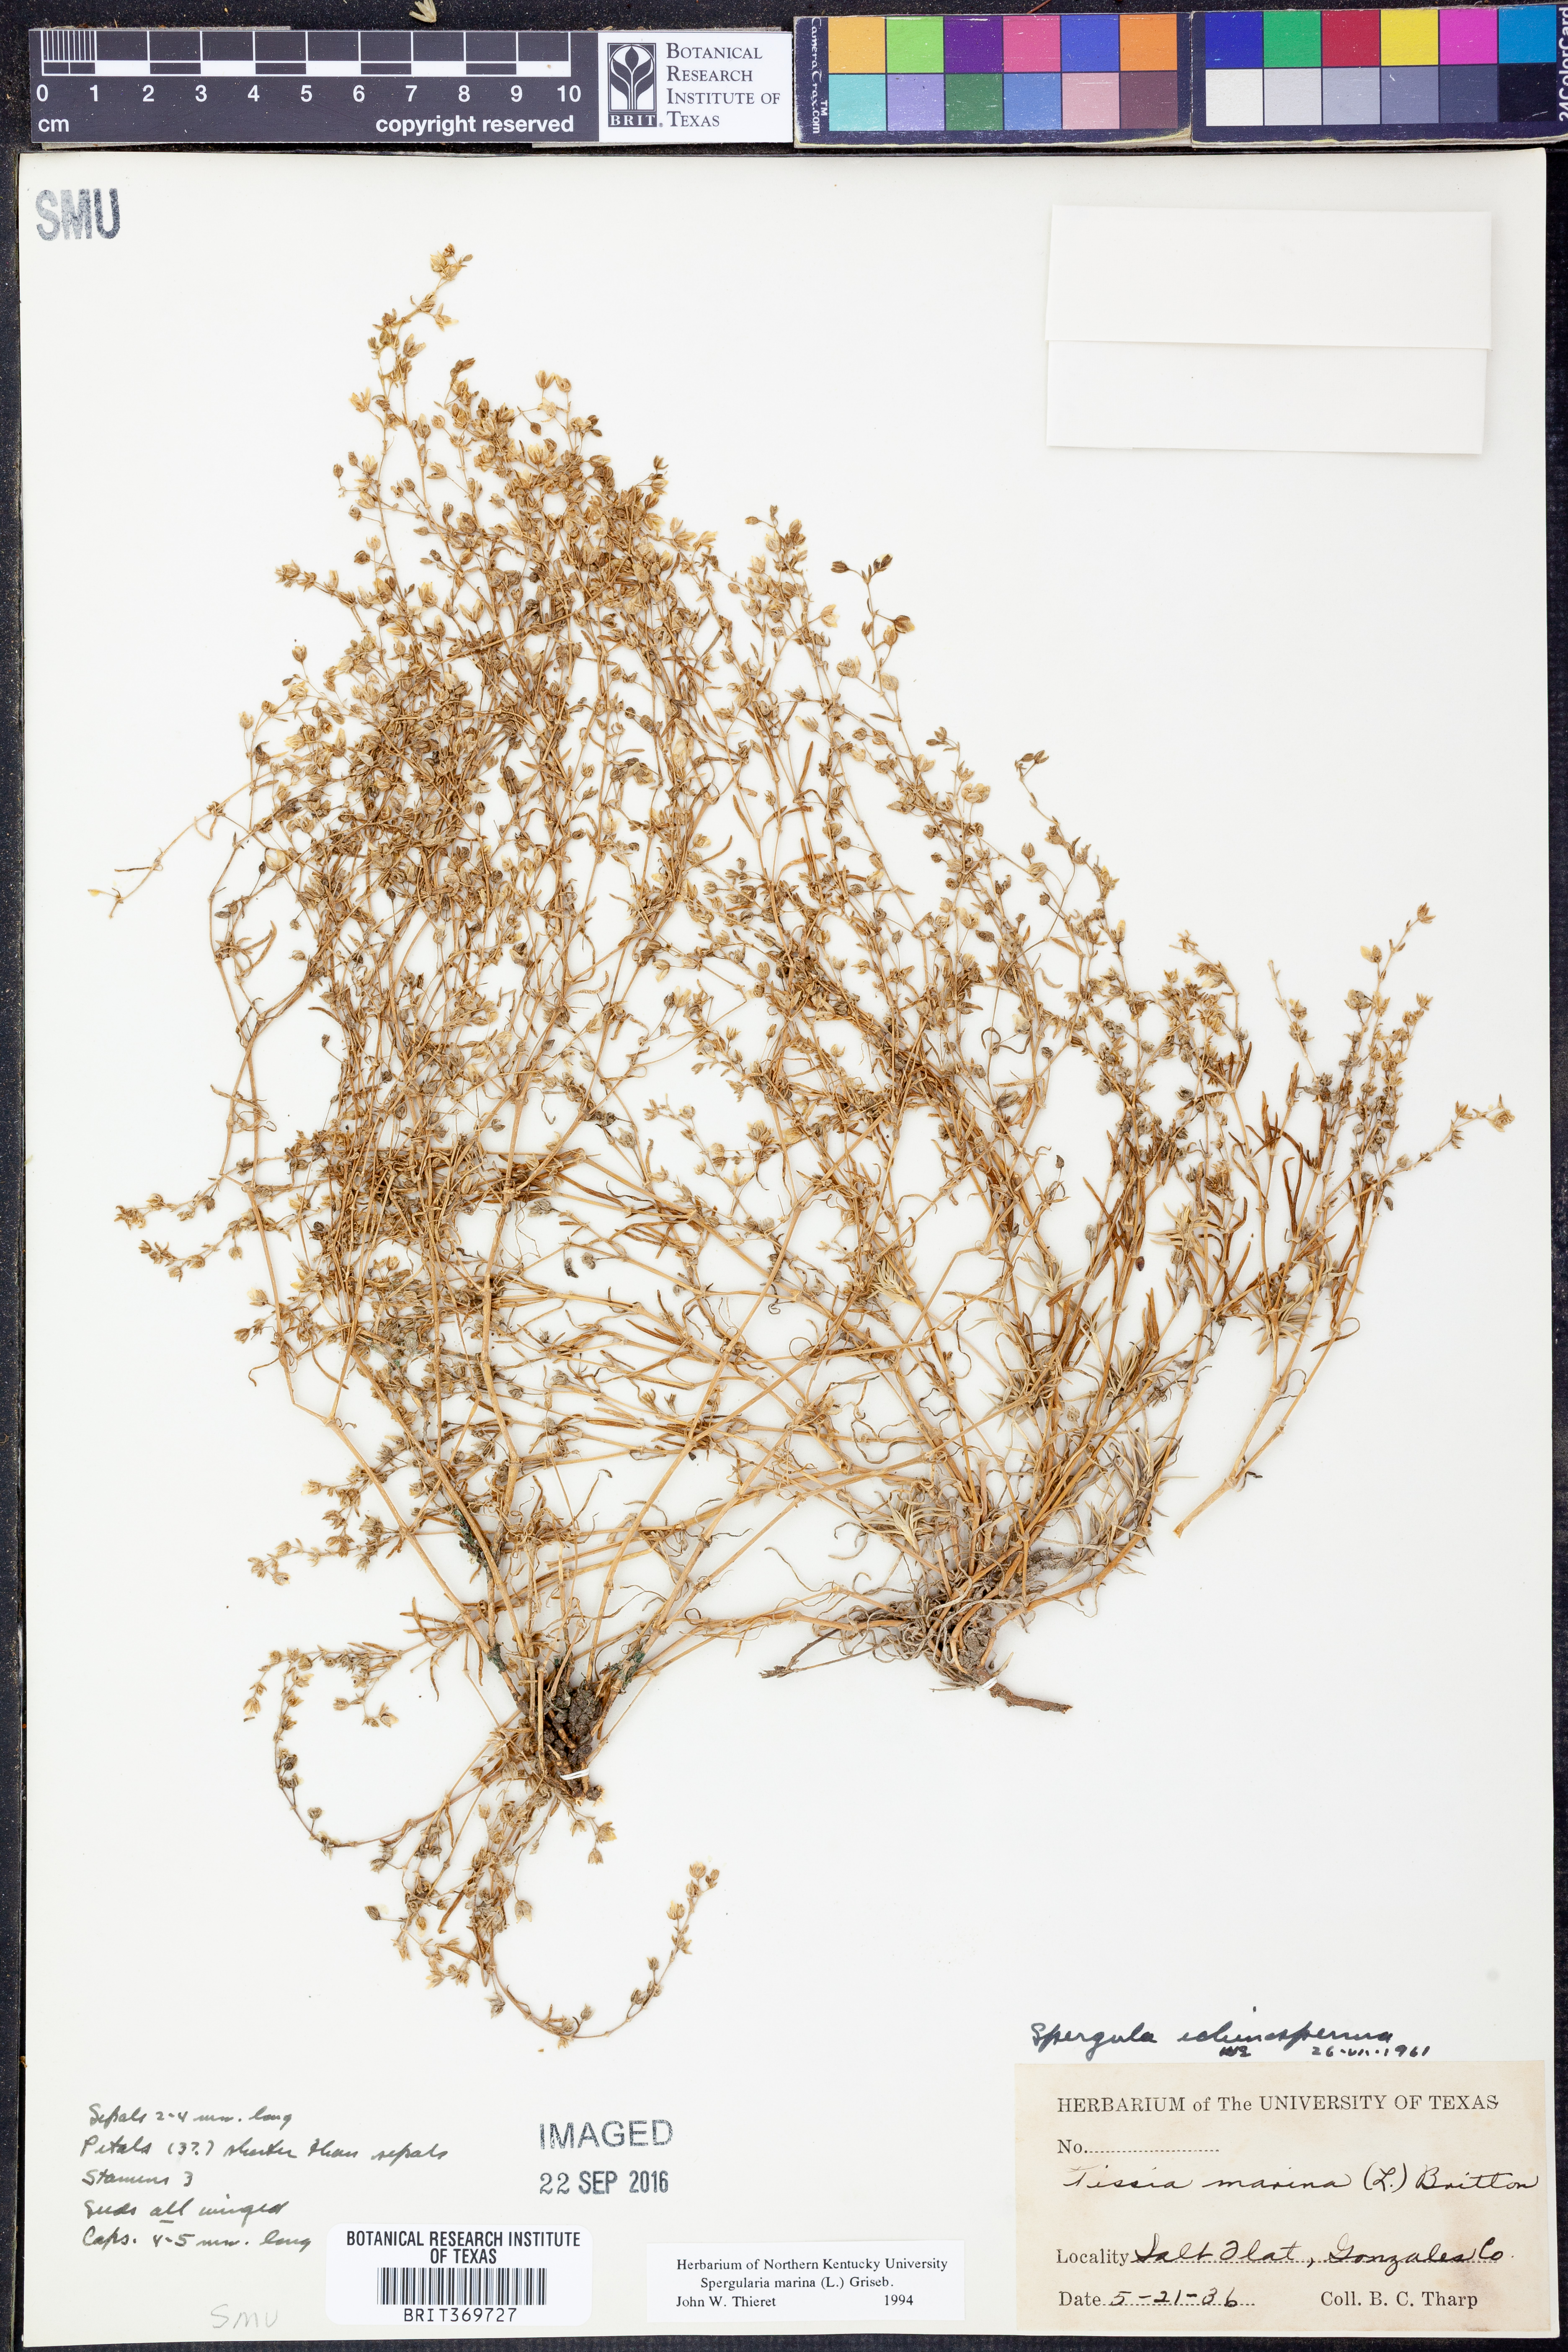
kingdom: Plantae
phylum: Tracheophyta
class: Magnoliopsida
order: Caryophyllales
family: Caryophyllaceae
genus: Spergularia
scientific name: Spergularia echinosperma
